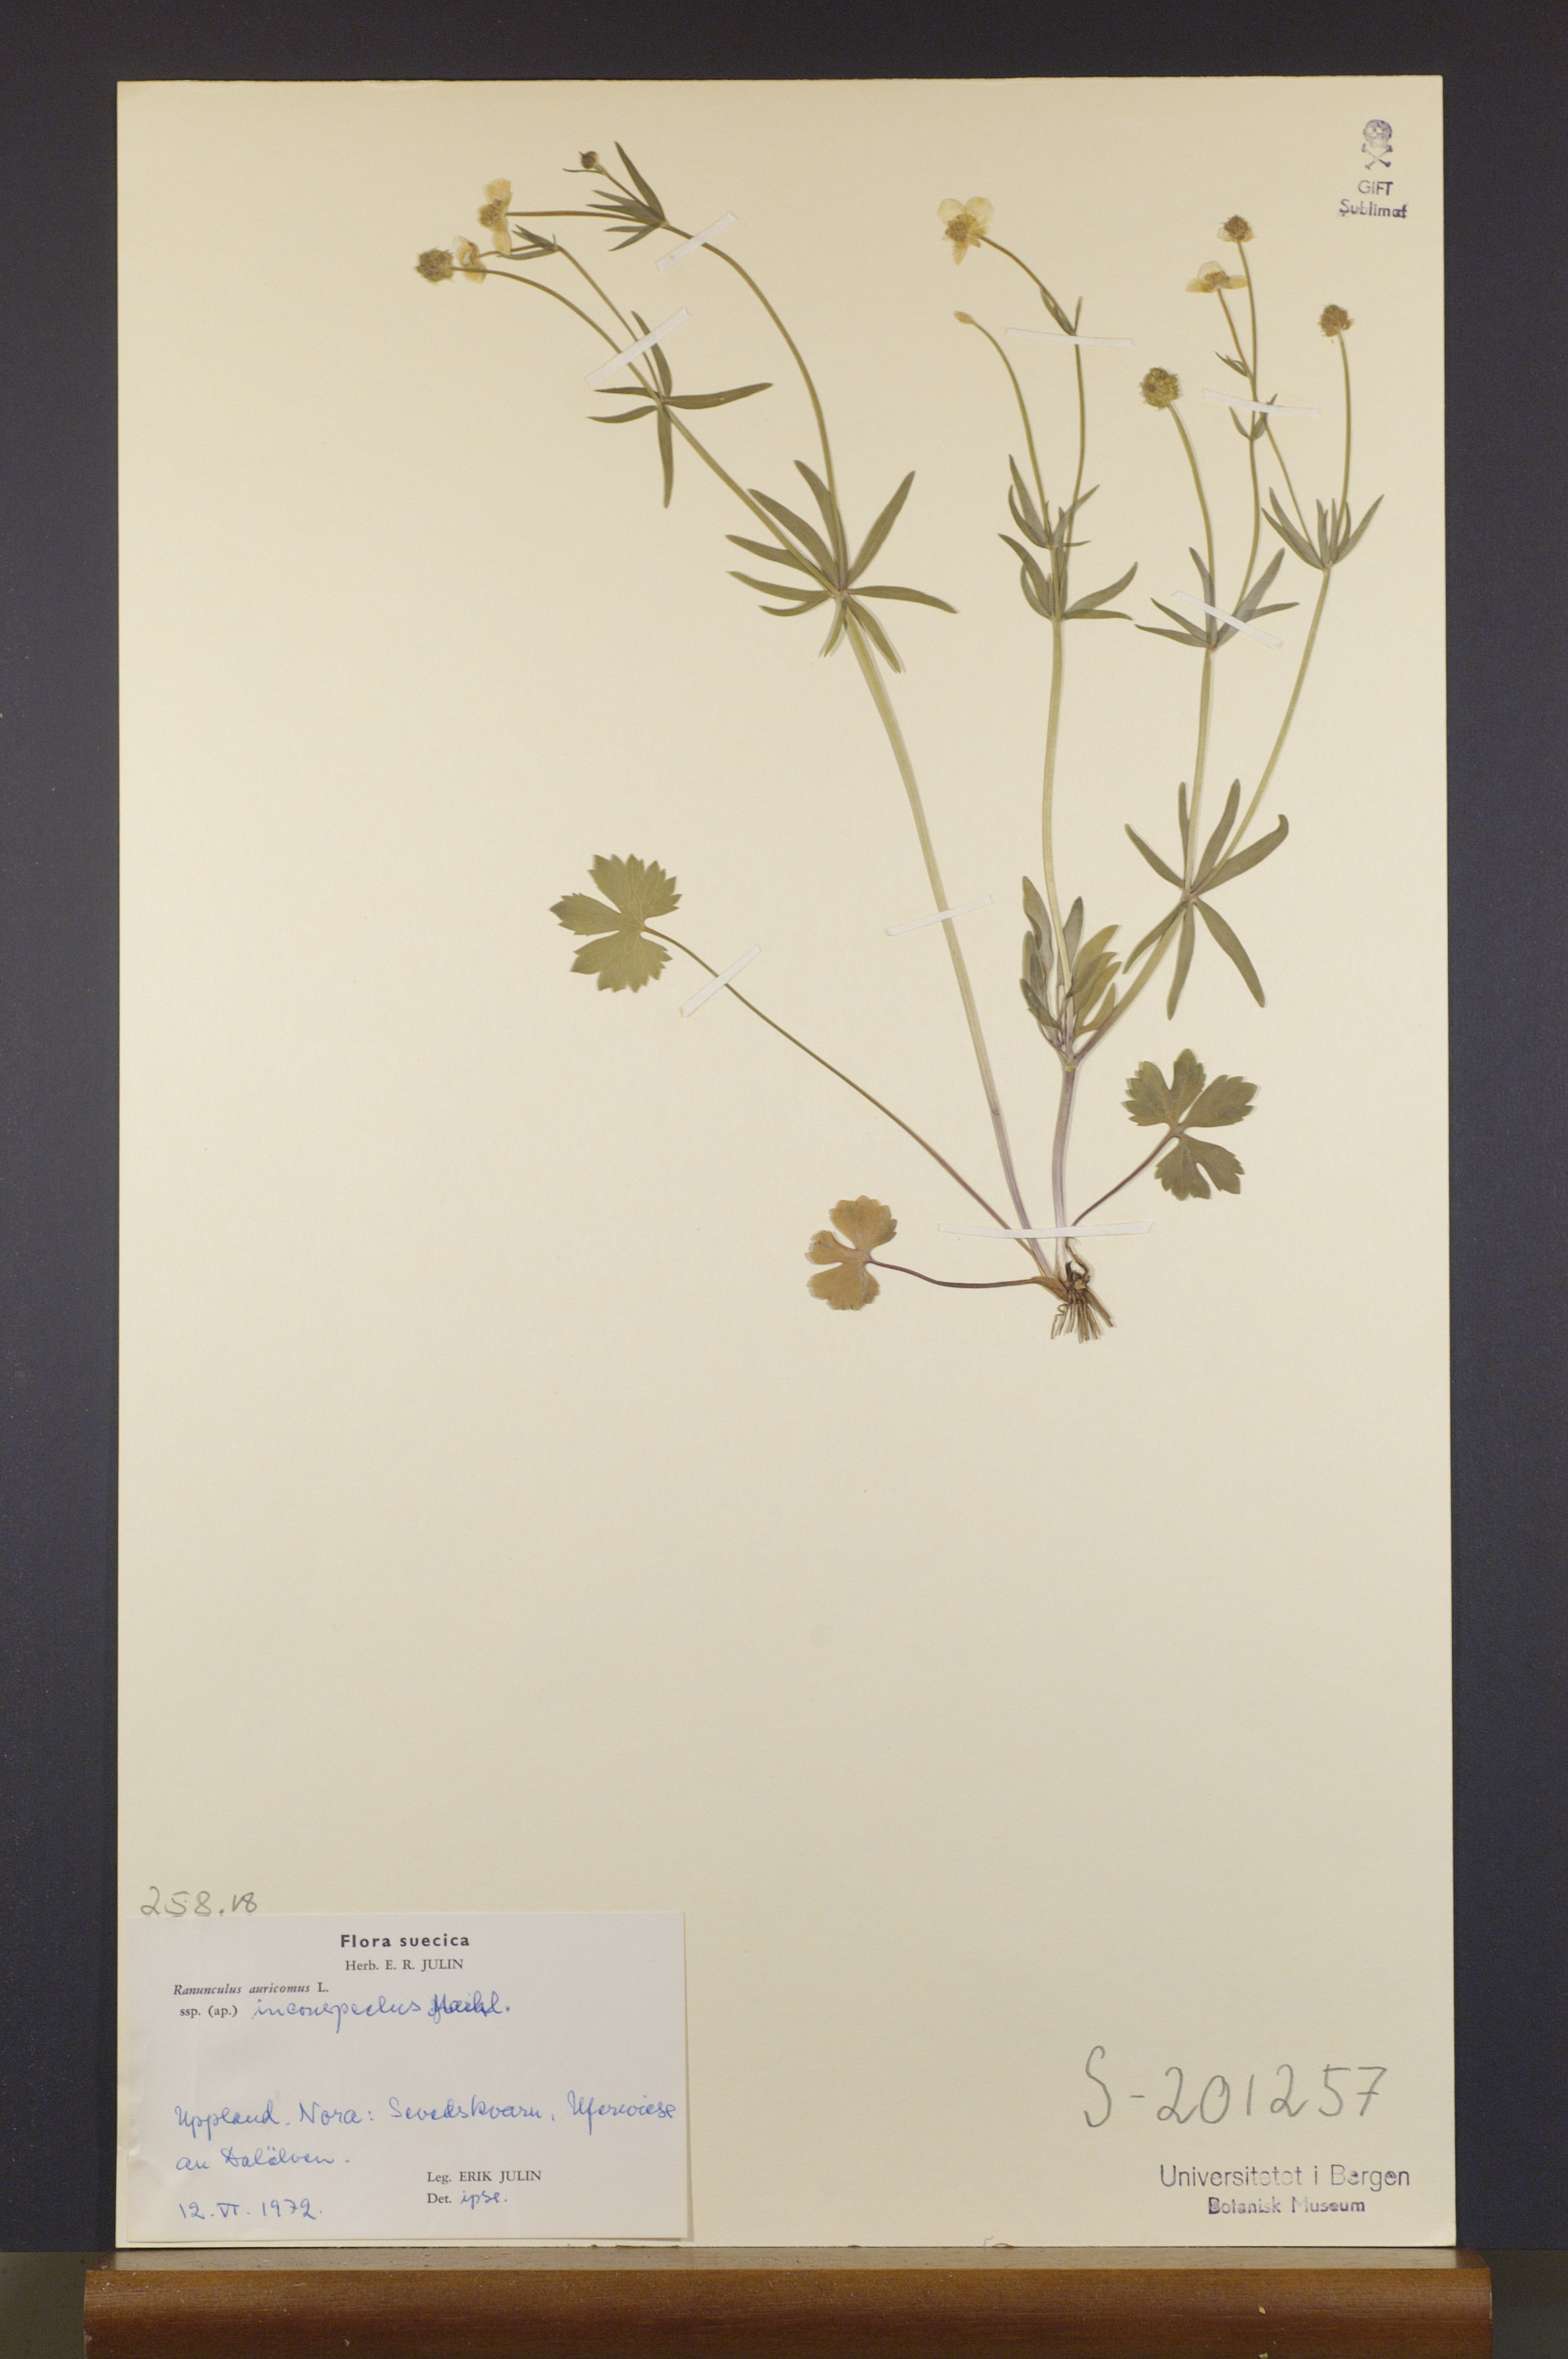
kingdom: Plantae
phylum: Tracheophyta
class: Magnoliopsida
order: Ranunculales
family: Ranunculaceae
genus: Ranunculus
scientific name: Ranunculus inconspectus
